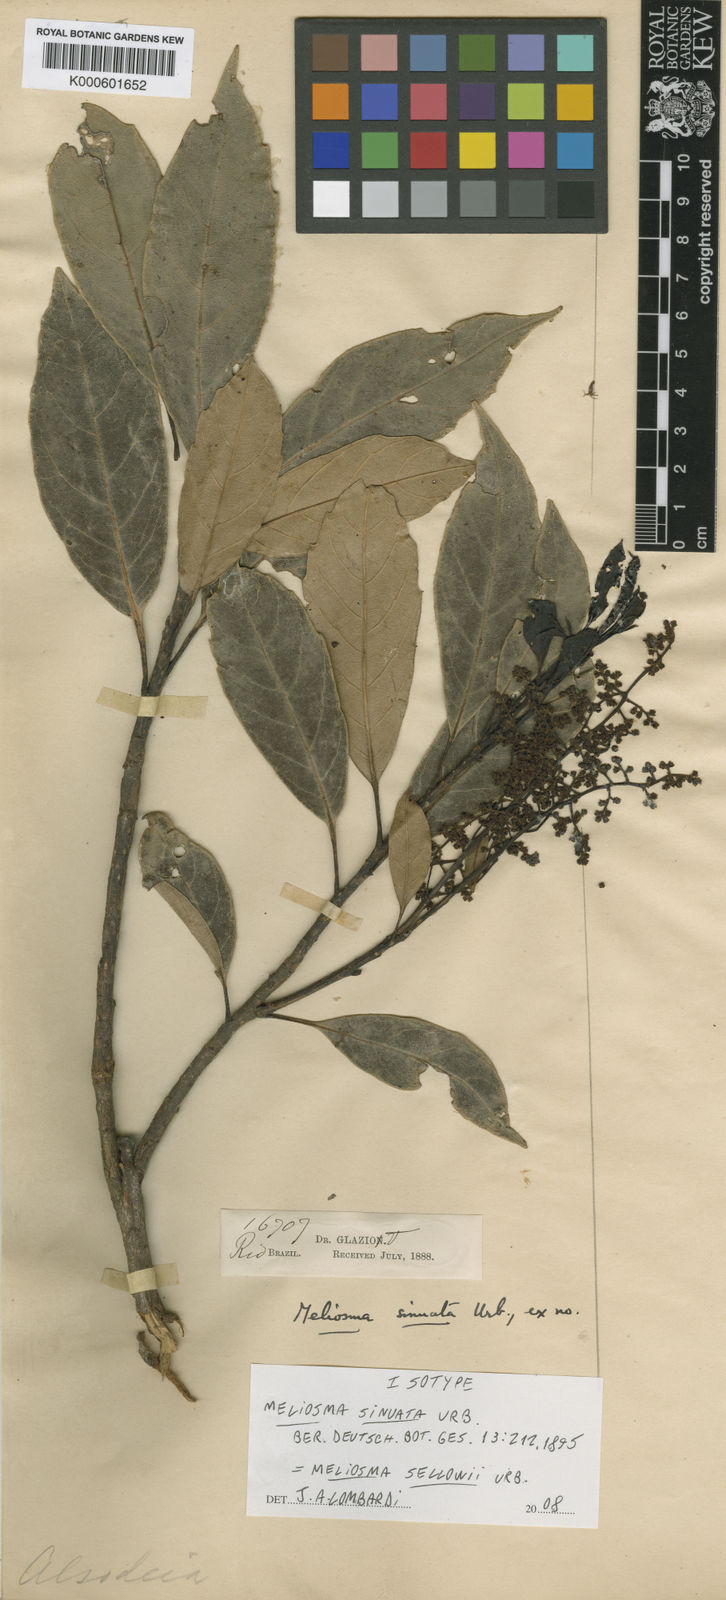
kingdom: Plantae
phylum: Tracheophyta
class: Magnoliopsida
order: Proteales
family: Sabiaceae
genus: Meliosma
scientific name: Meliosma sellowii
